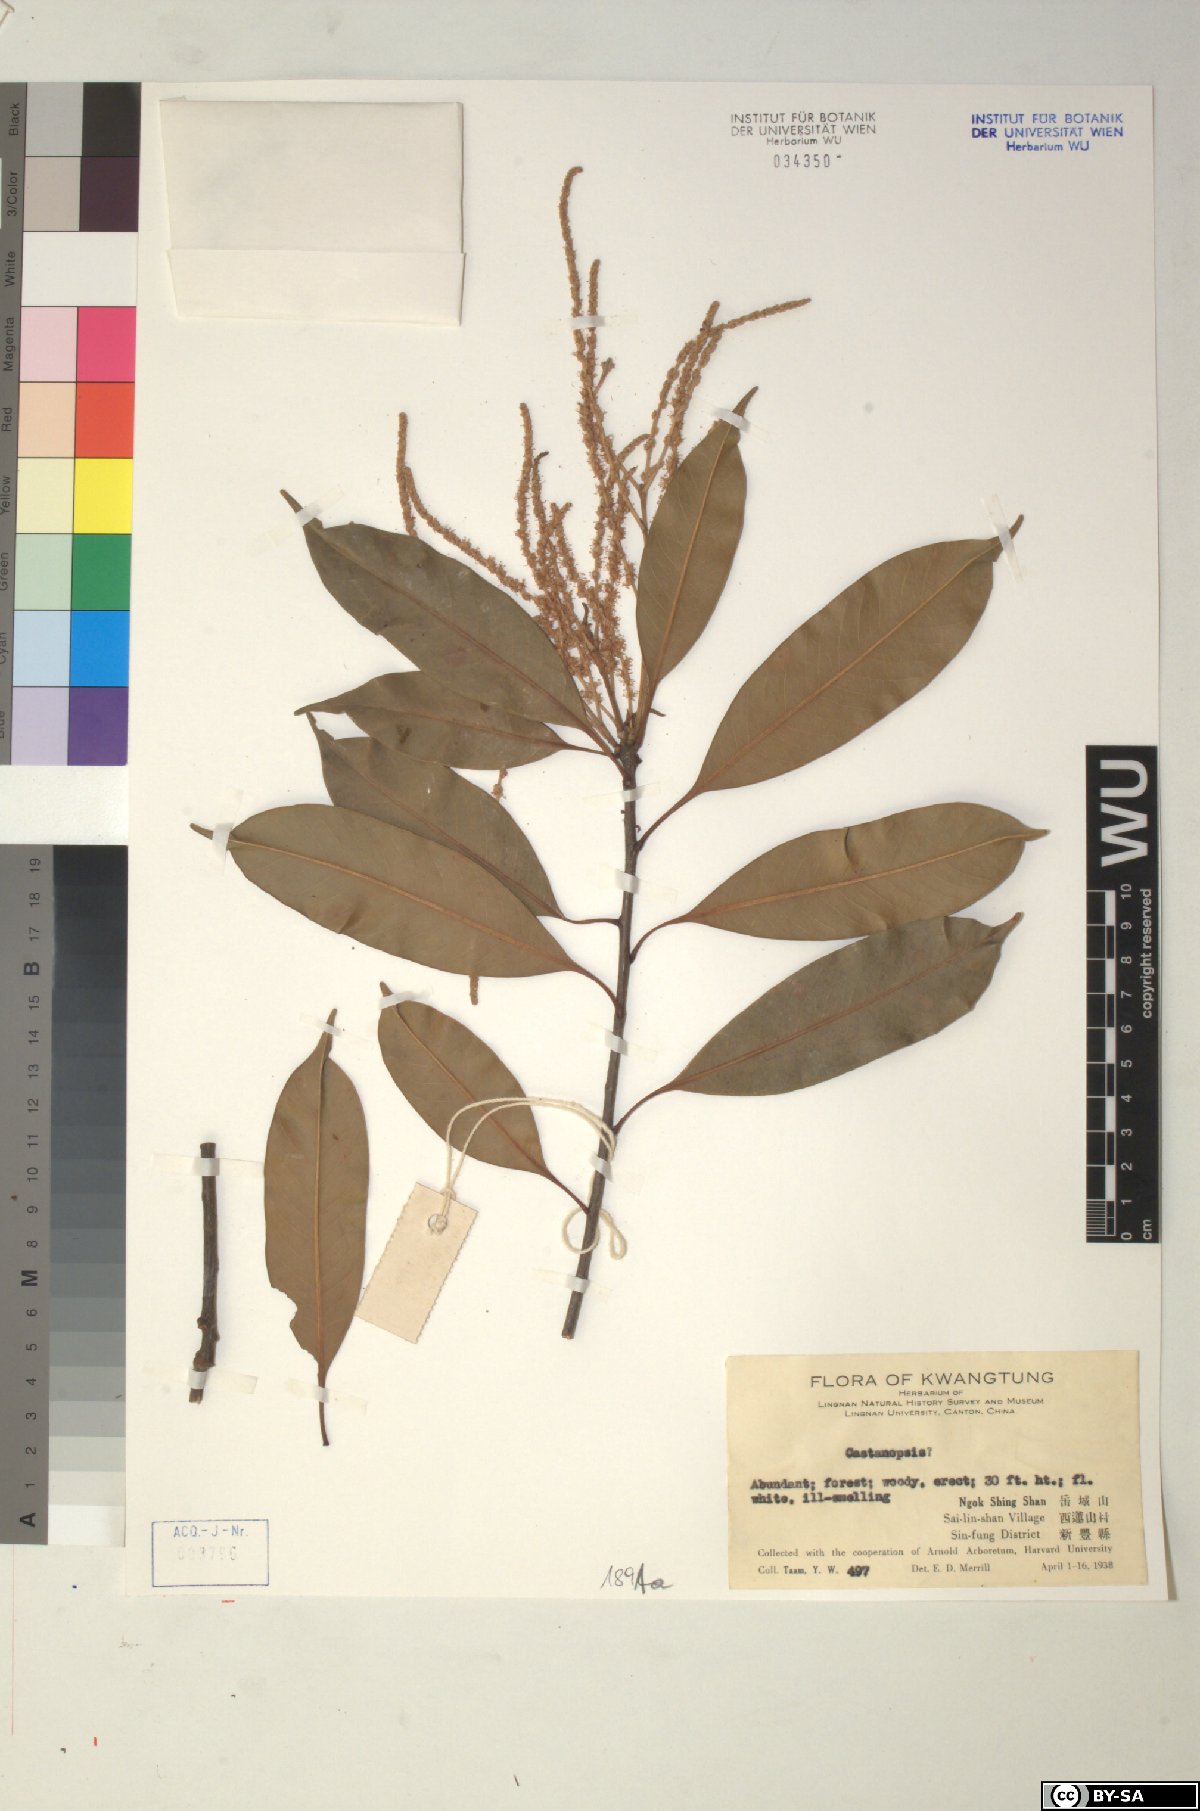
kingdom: Plantae
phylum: Tracheophyta
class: Magnoliopsida
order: Fagales
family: Fagaceae
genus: Castanopsis
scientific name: Castanopsis
